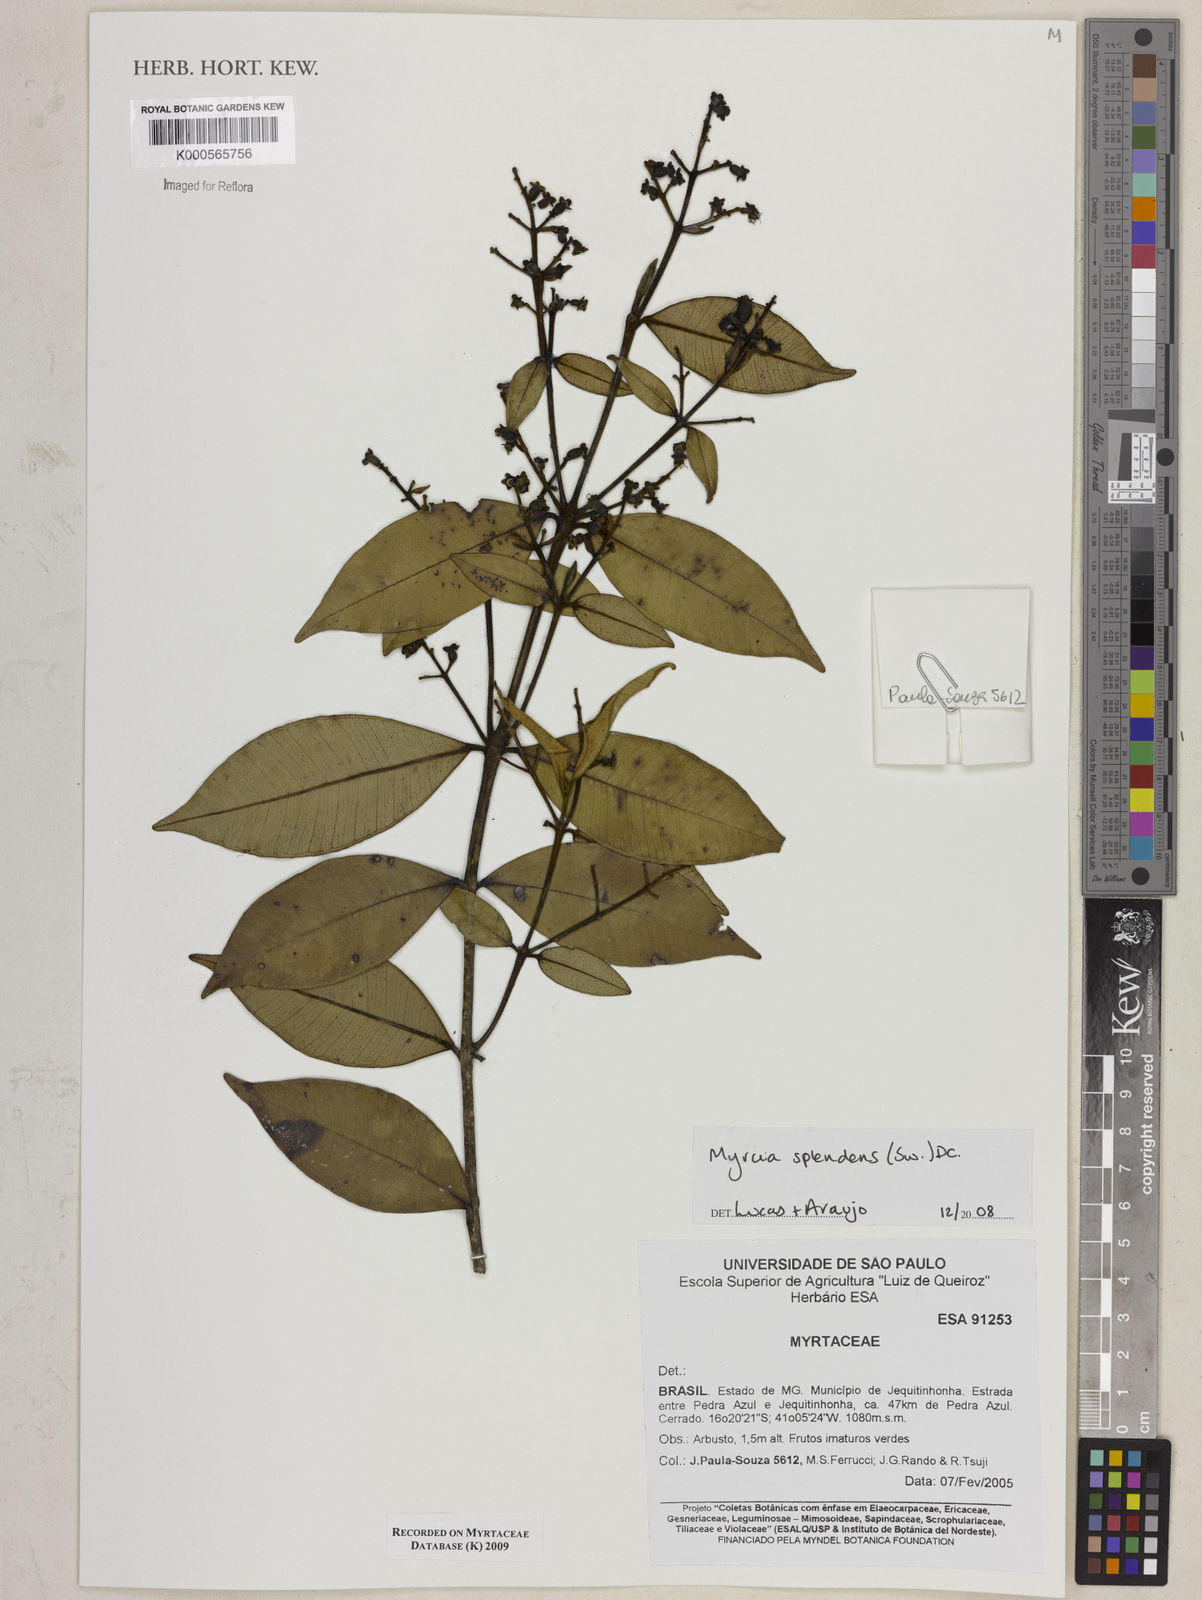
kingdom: Plantae
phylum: Tracheophyta
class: Magnoliopsida
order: Myrtales
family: Myrtaceae
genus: Myrcia
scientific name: Myrcia splendens
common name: Surinam cherry
